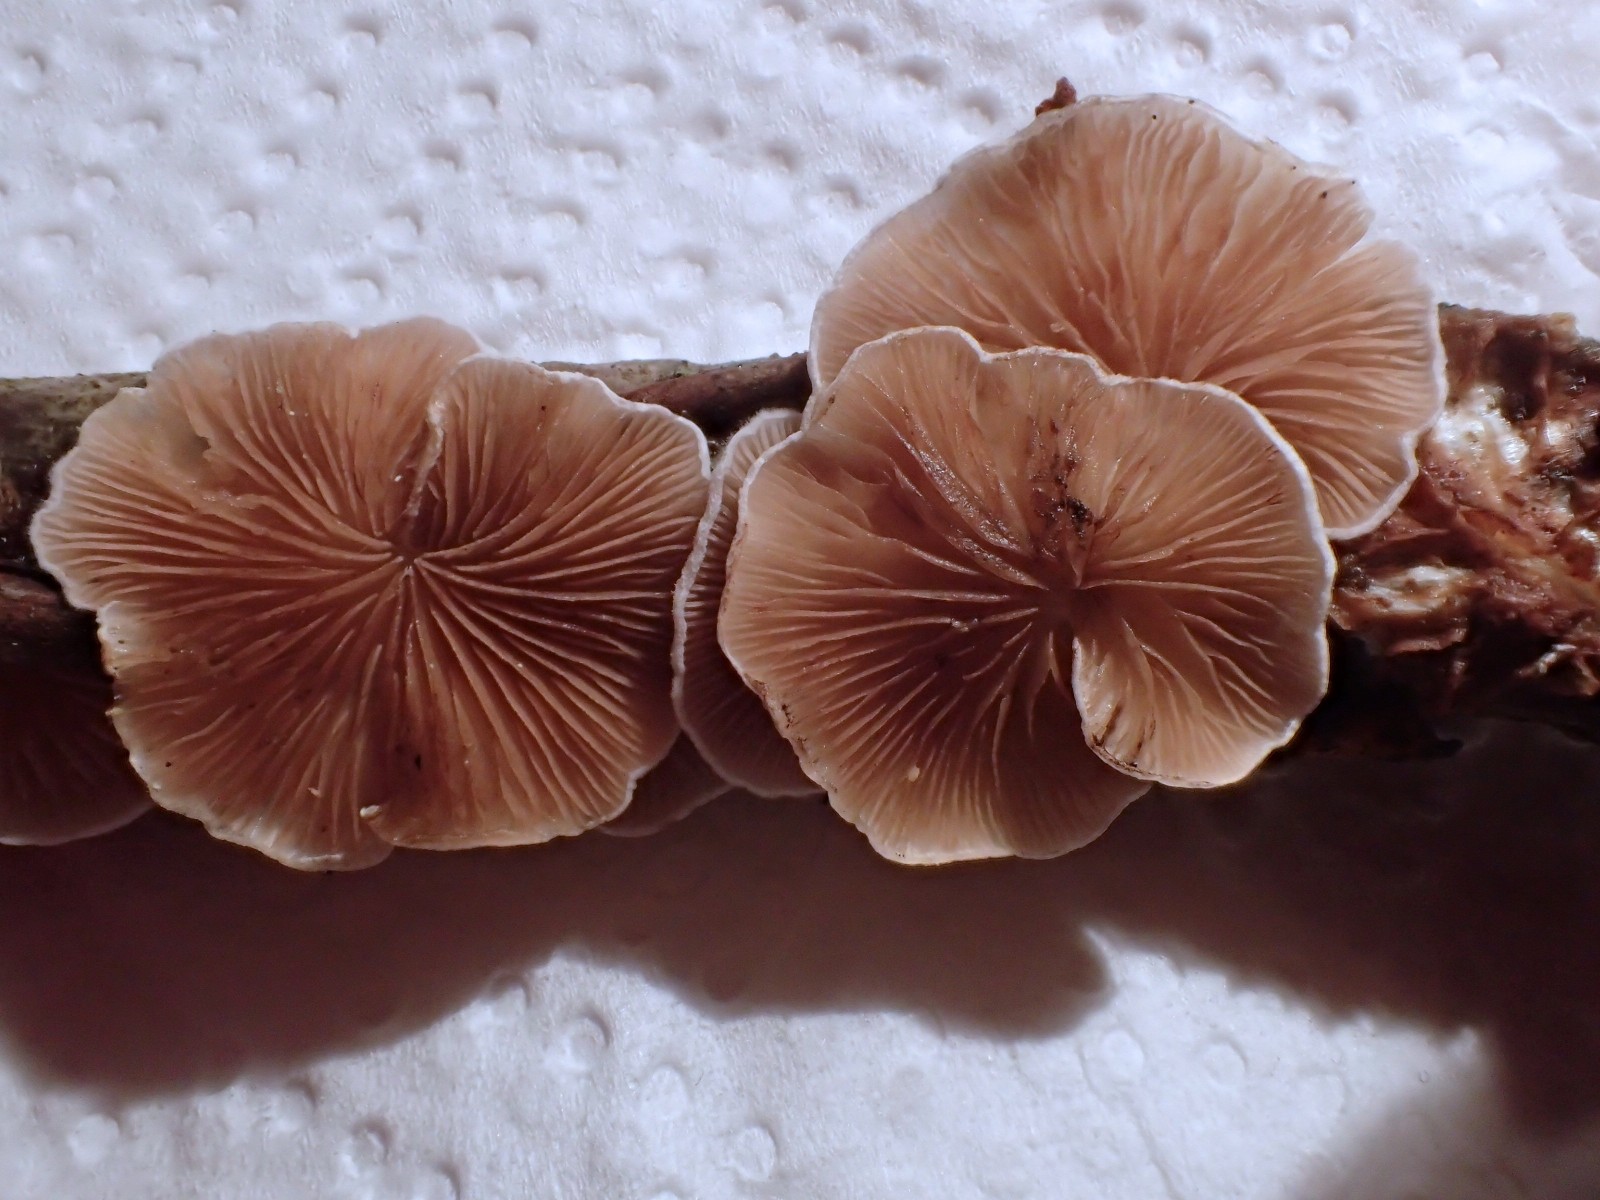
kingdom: Fungi
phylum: Basidiomycota
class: Agaricomycetes
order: Agaricales
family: Crepidotaceae
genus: Crepidotus
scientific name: Crepidotus
